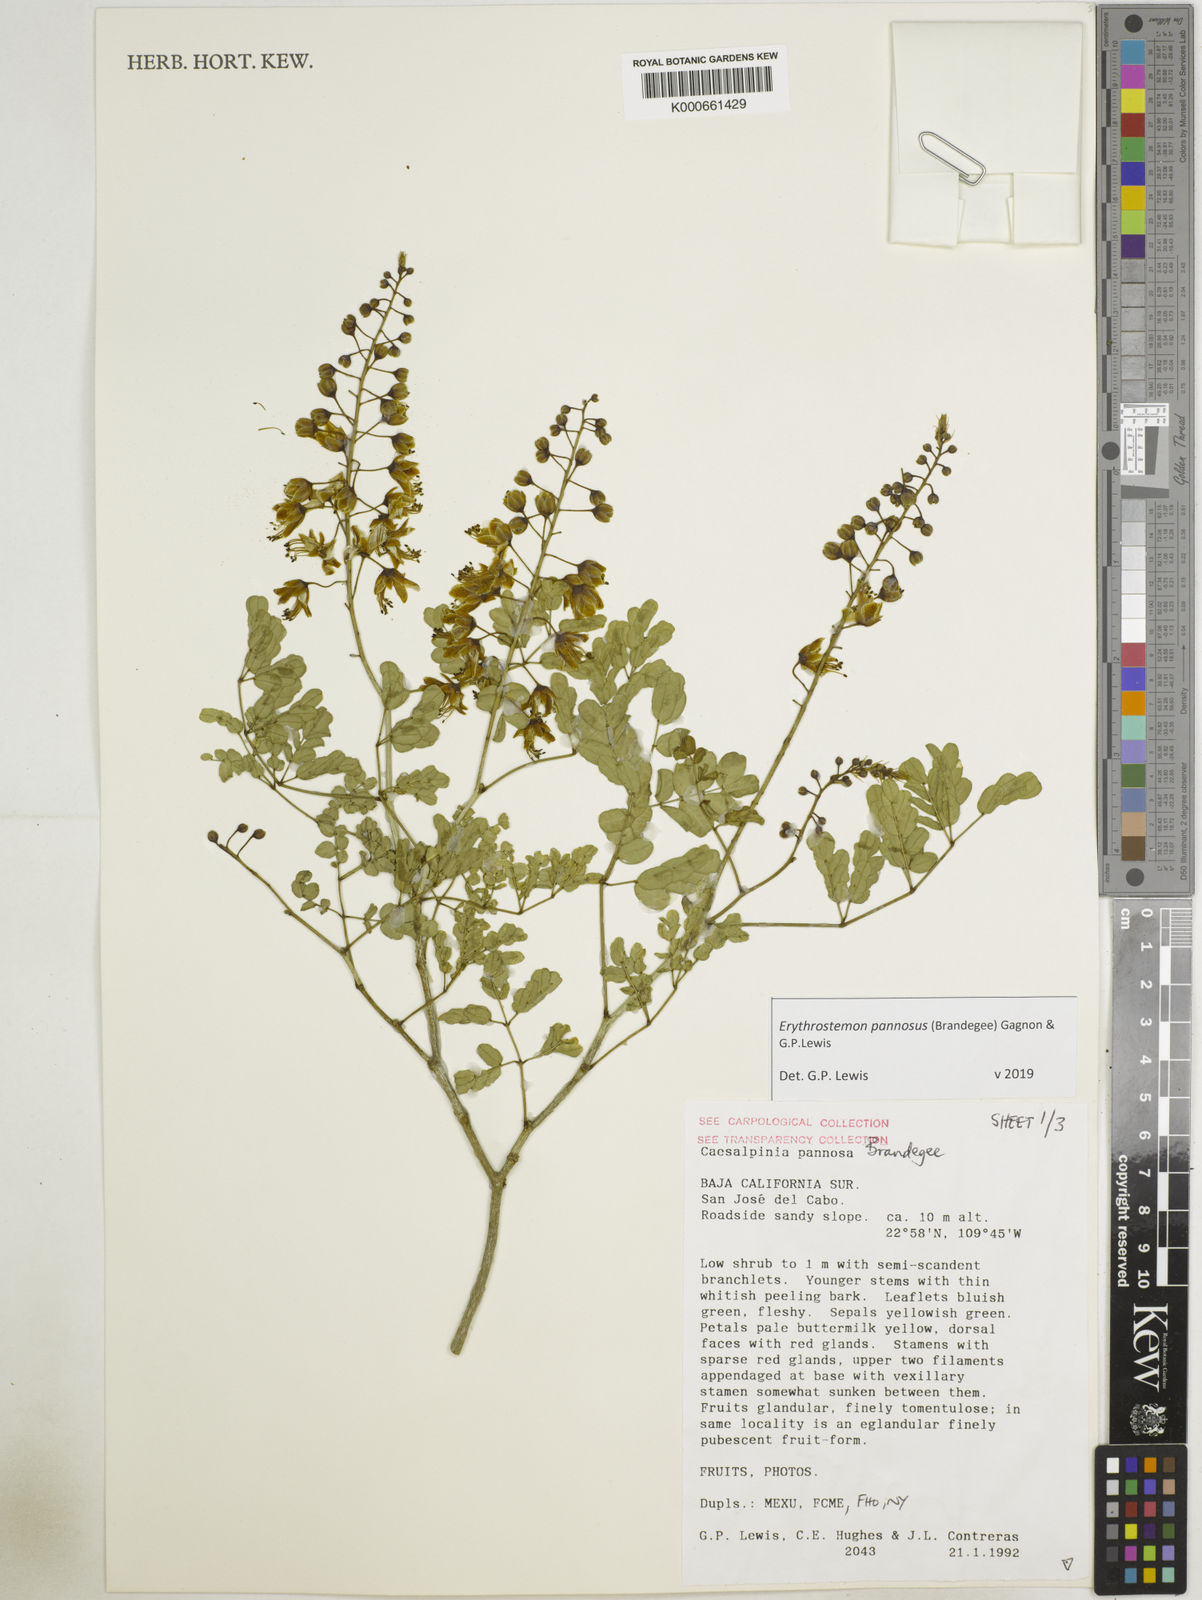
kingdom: Plantae
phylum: Tracheophyta
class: Magnoliopsida
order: Fabales
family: Fabaceae
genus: Erythrostemon
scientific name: Erythrostemon pannosus
